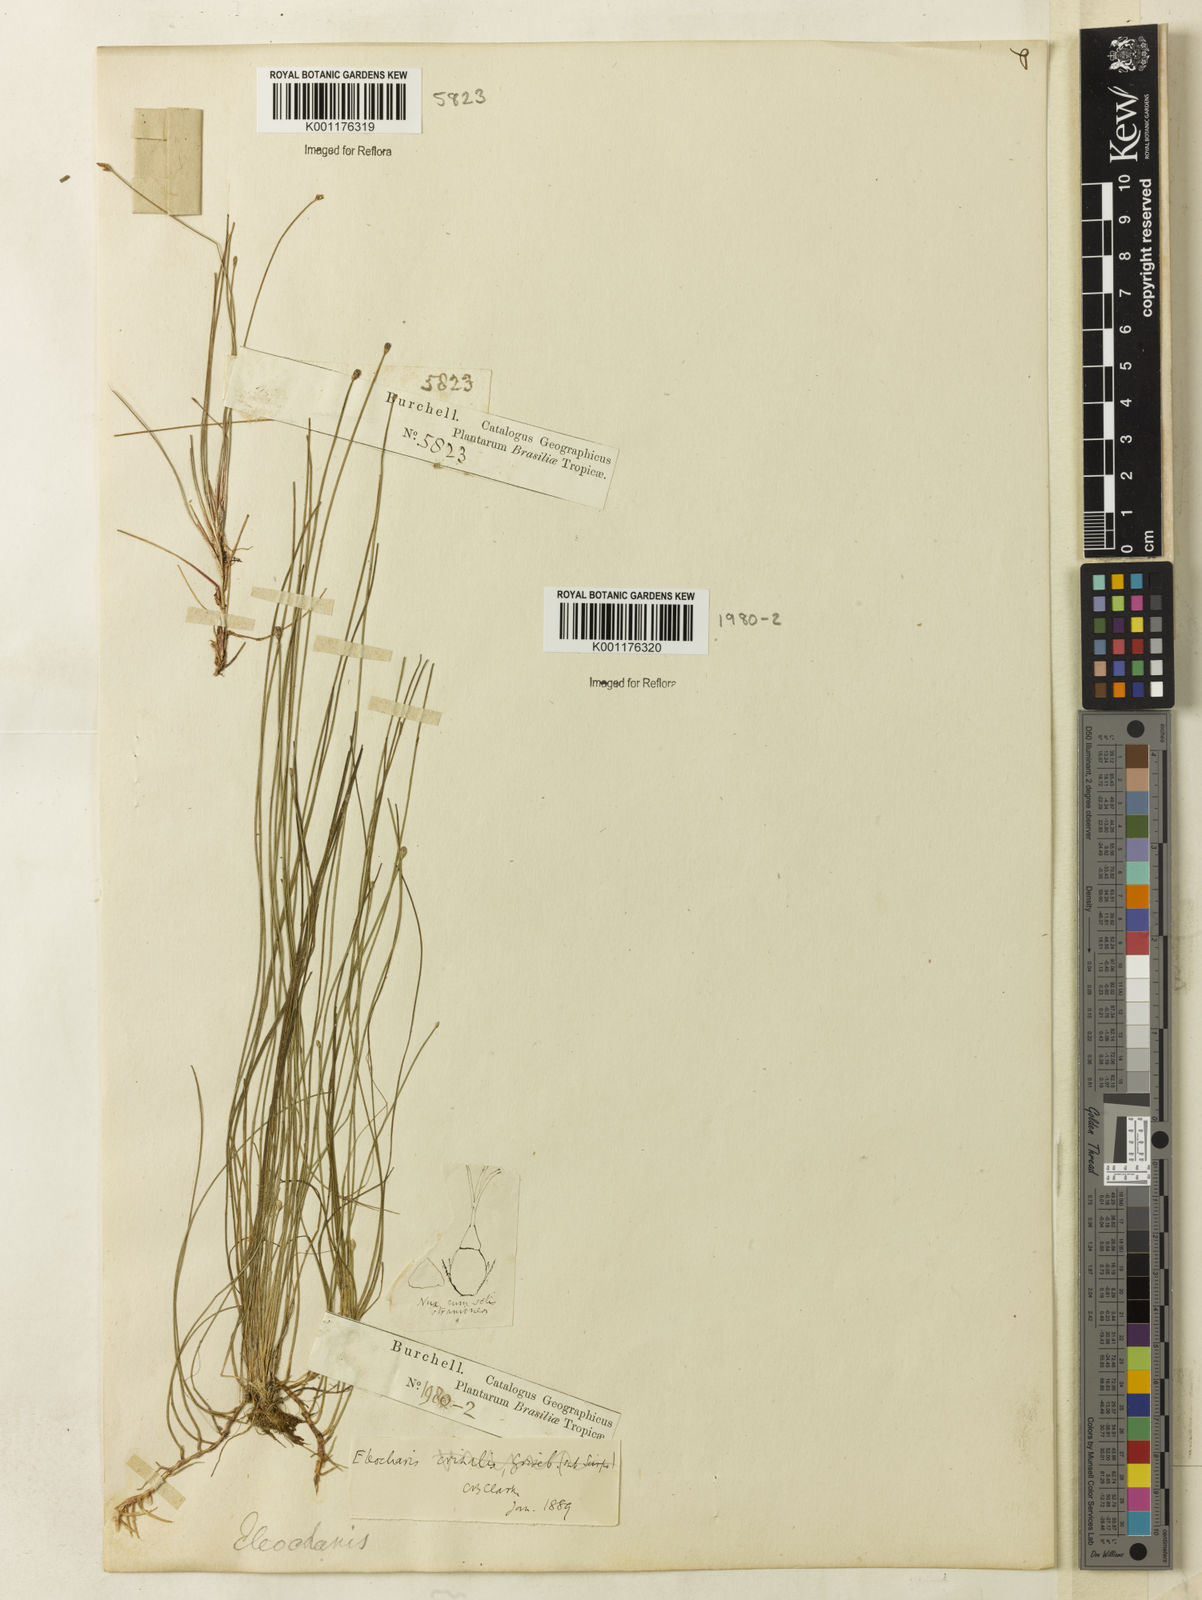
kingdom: Plantae
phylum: Tracheophyta
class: Liliopsida
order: Poales
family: Cyperaceae
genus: Eleocharis
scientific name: Eleocharis
